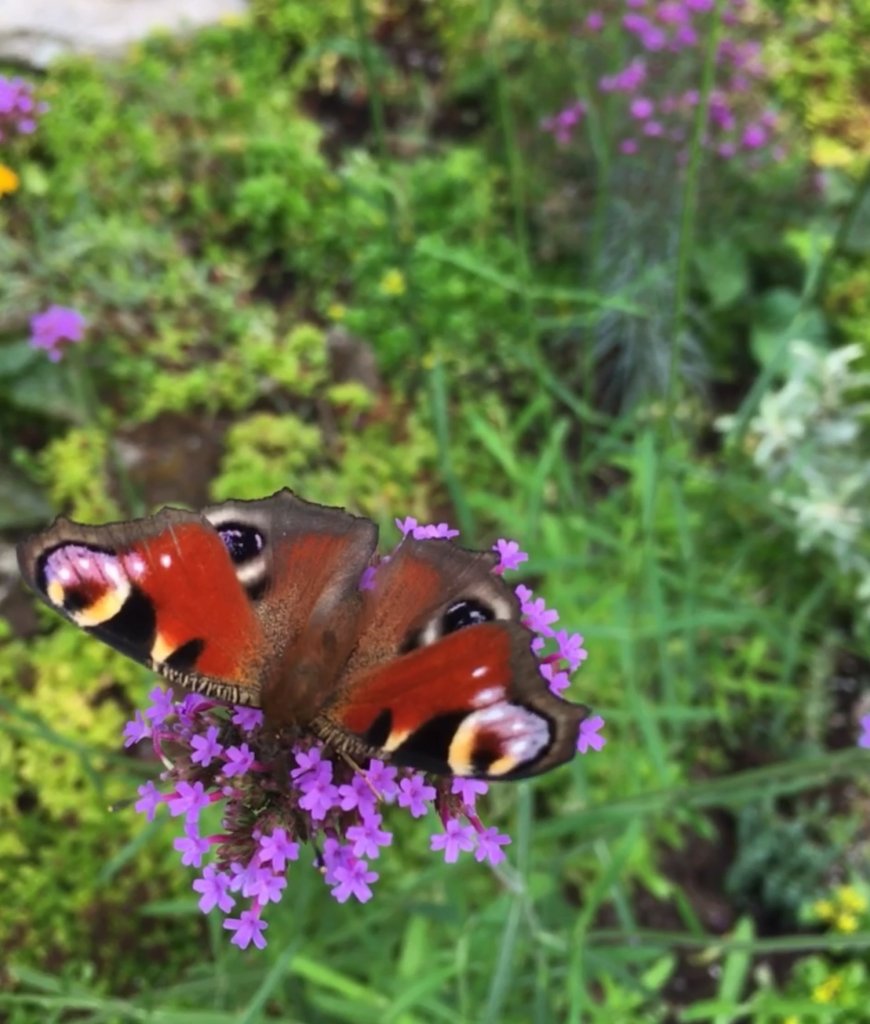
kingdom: Animalia
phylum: Arthropoda
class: Insecta
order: Lepidoptera
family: Nymphalidae
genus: Aglais
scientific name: Aglais io
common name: European Peacock
